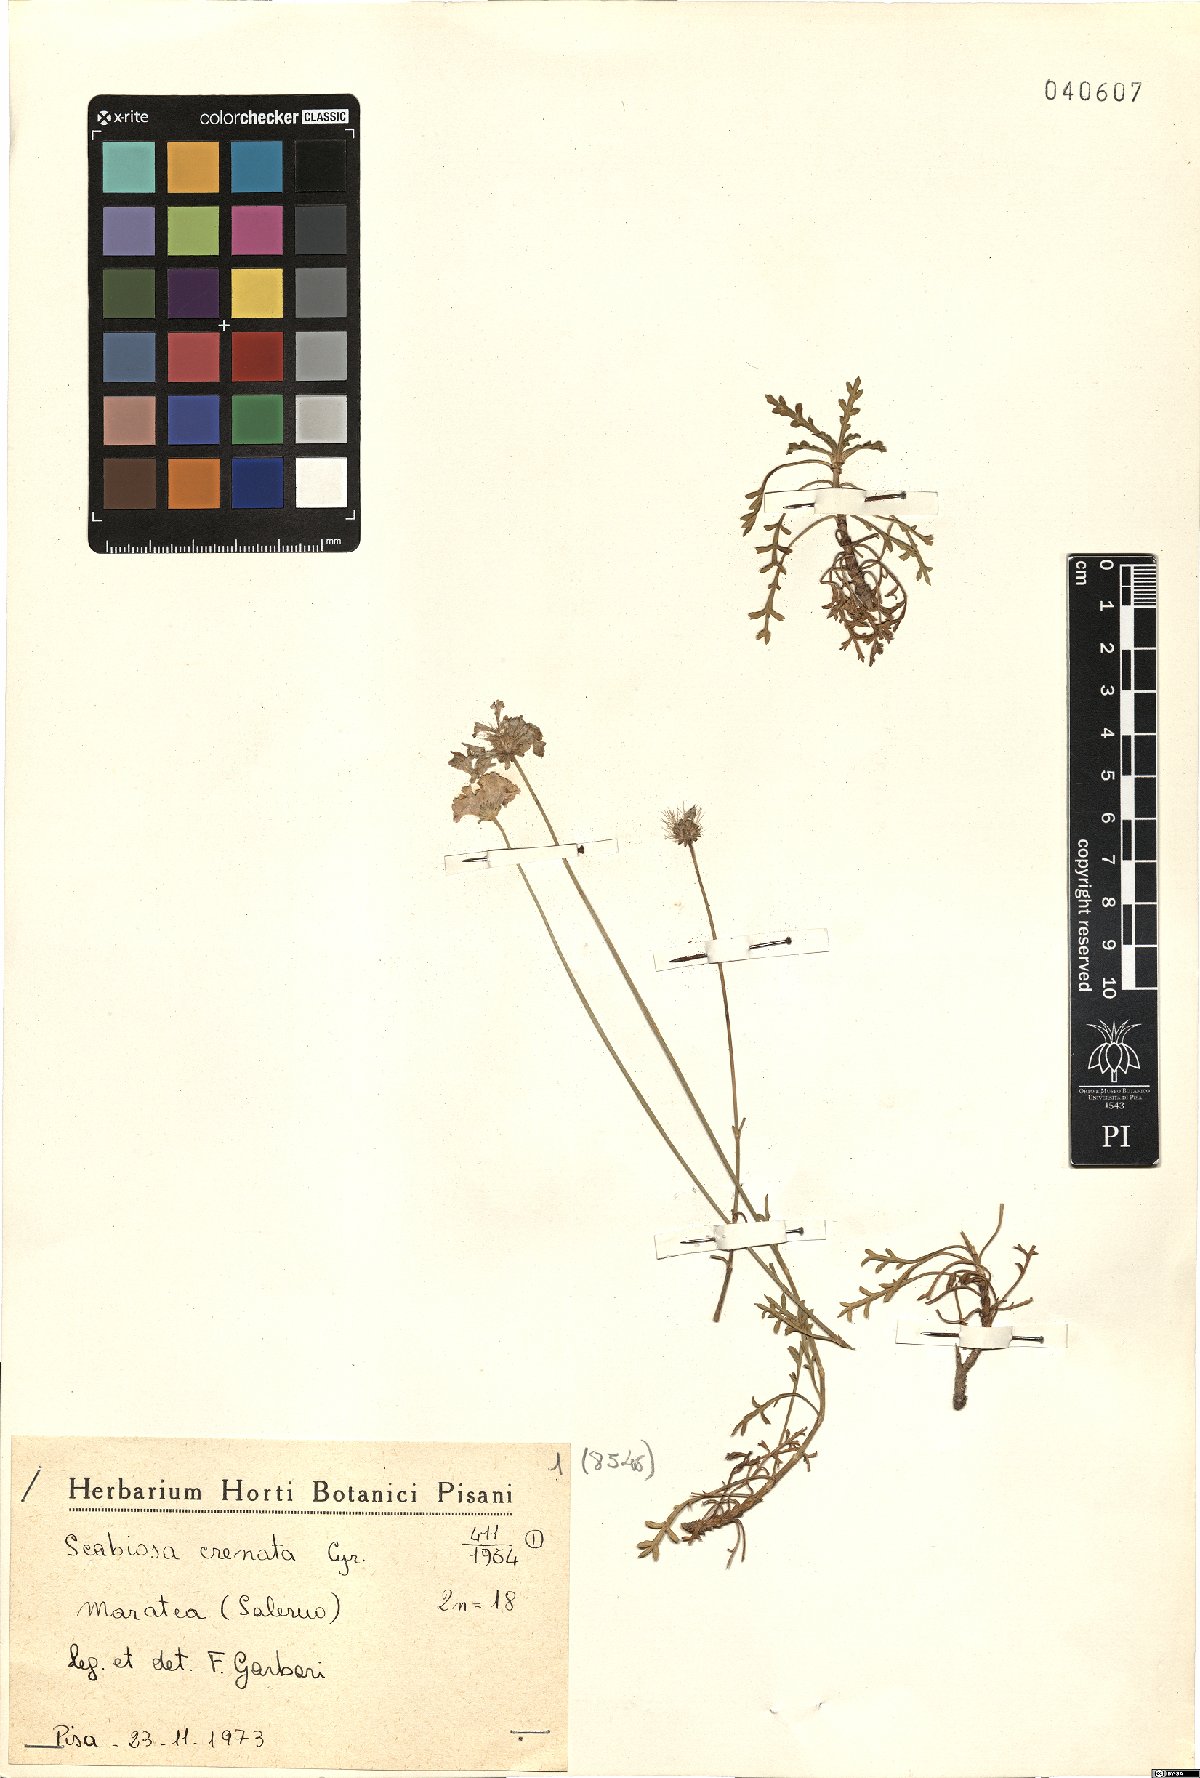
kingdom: Plantae
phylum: Tracheophyta
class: Magnoliopsida
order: Dipsacales
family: Caprifoliaceae
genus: Lomelosia
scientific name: Lomelosia crenata
